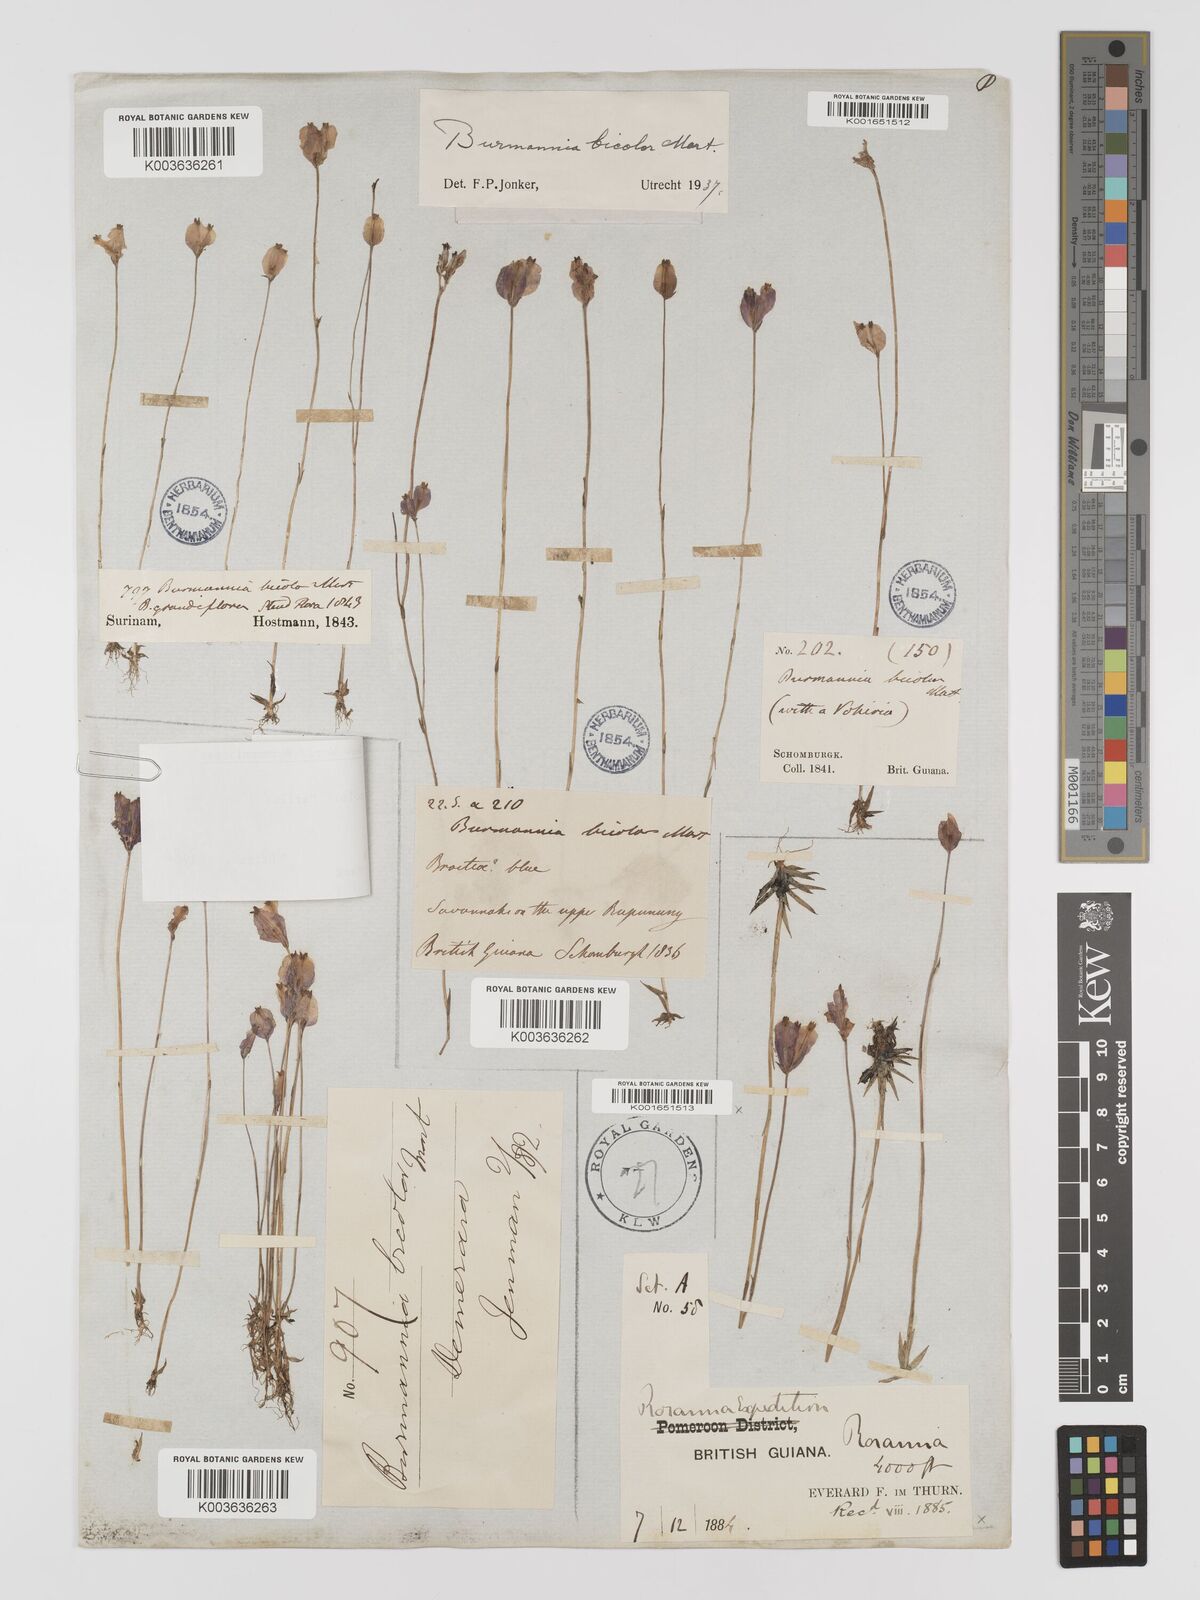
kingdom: Plantae
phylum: Tracheophyta
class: Liliopsida
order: Dioscoreales
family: Burmanniaceae
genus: Burmannia
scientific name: Burmannia bicolor
